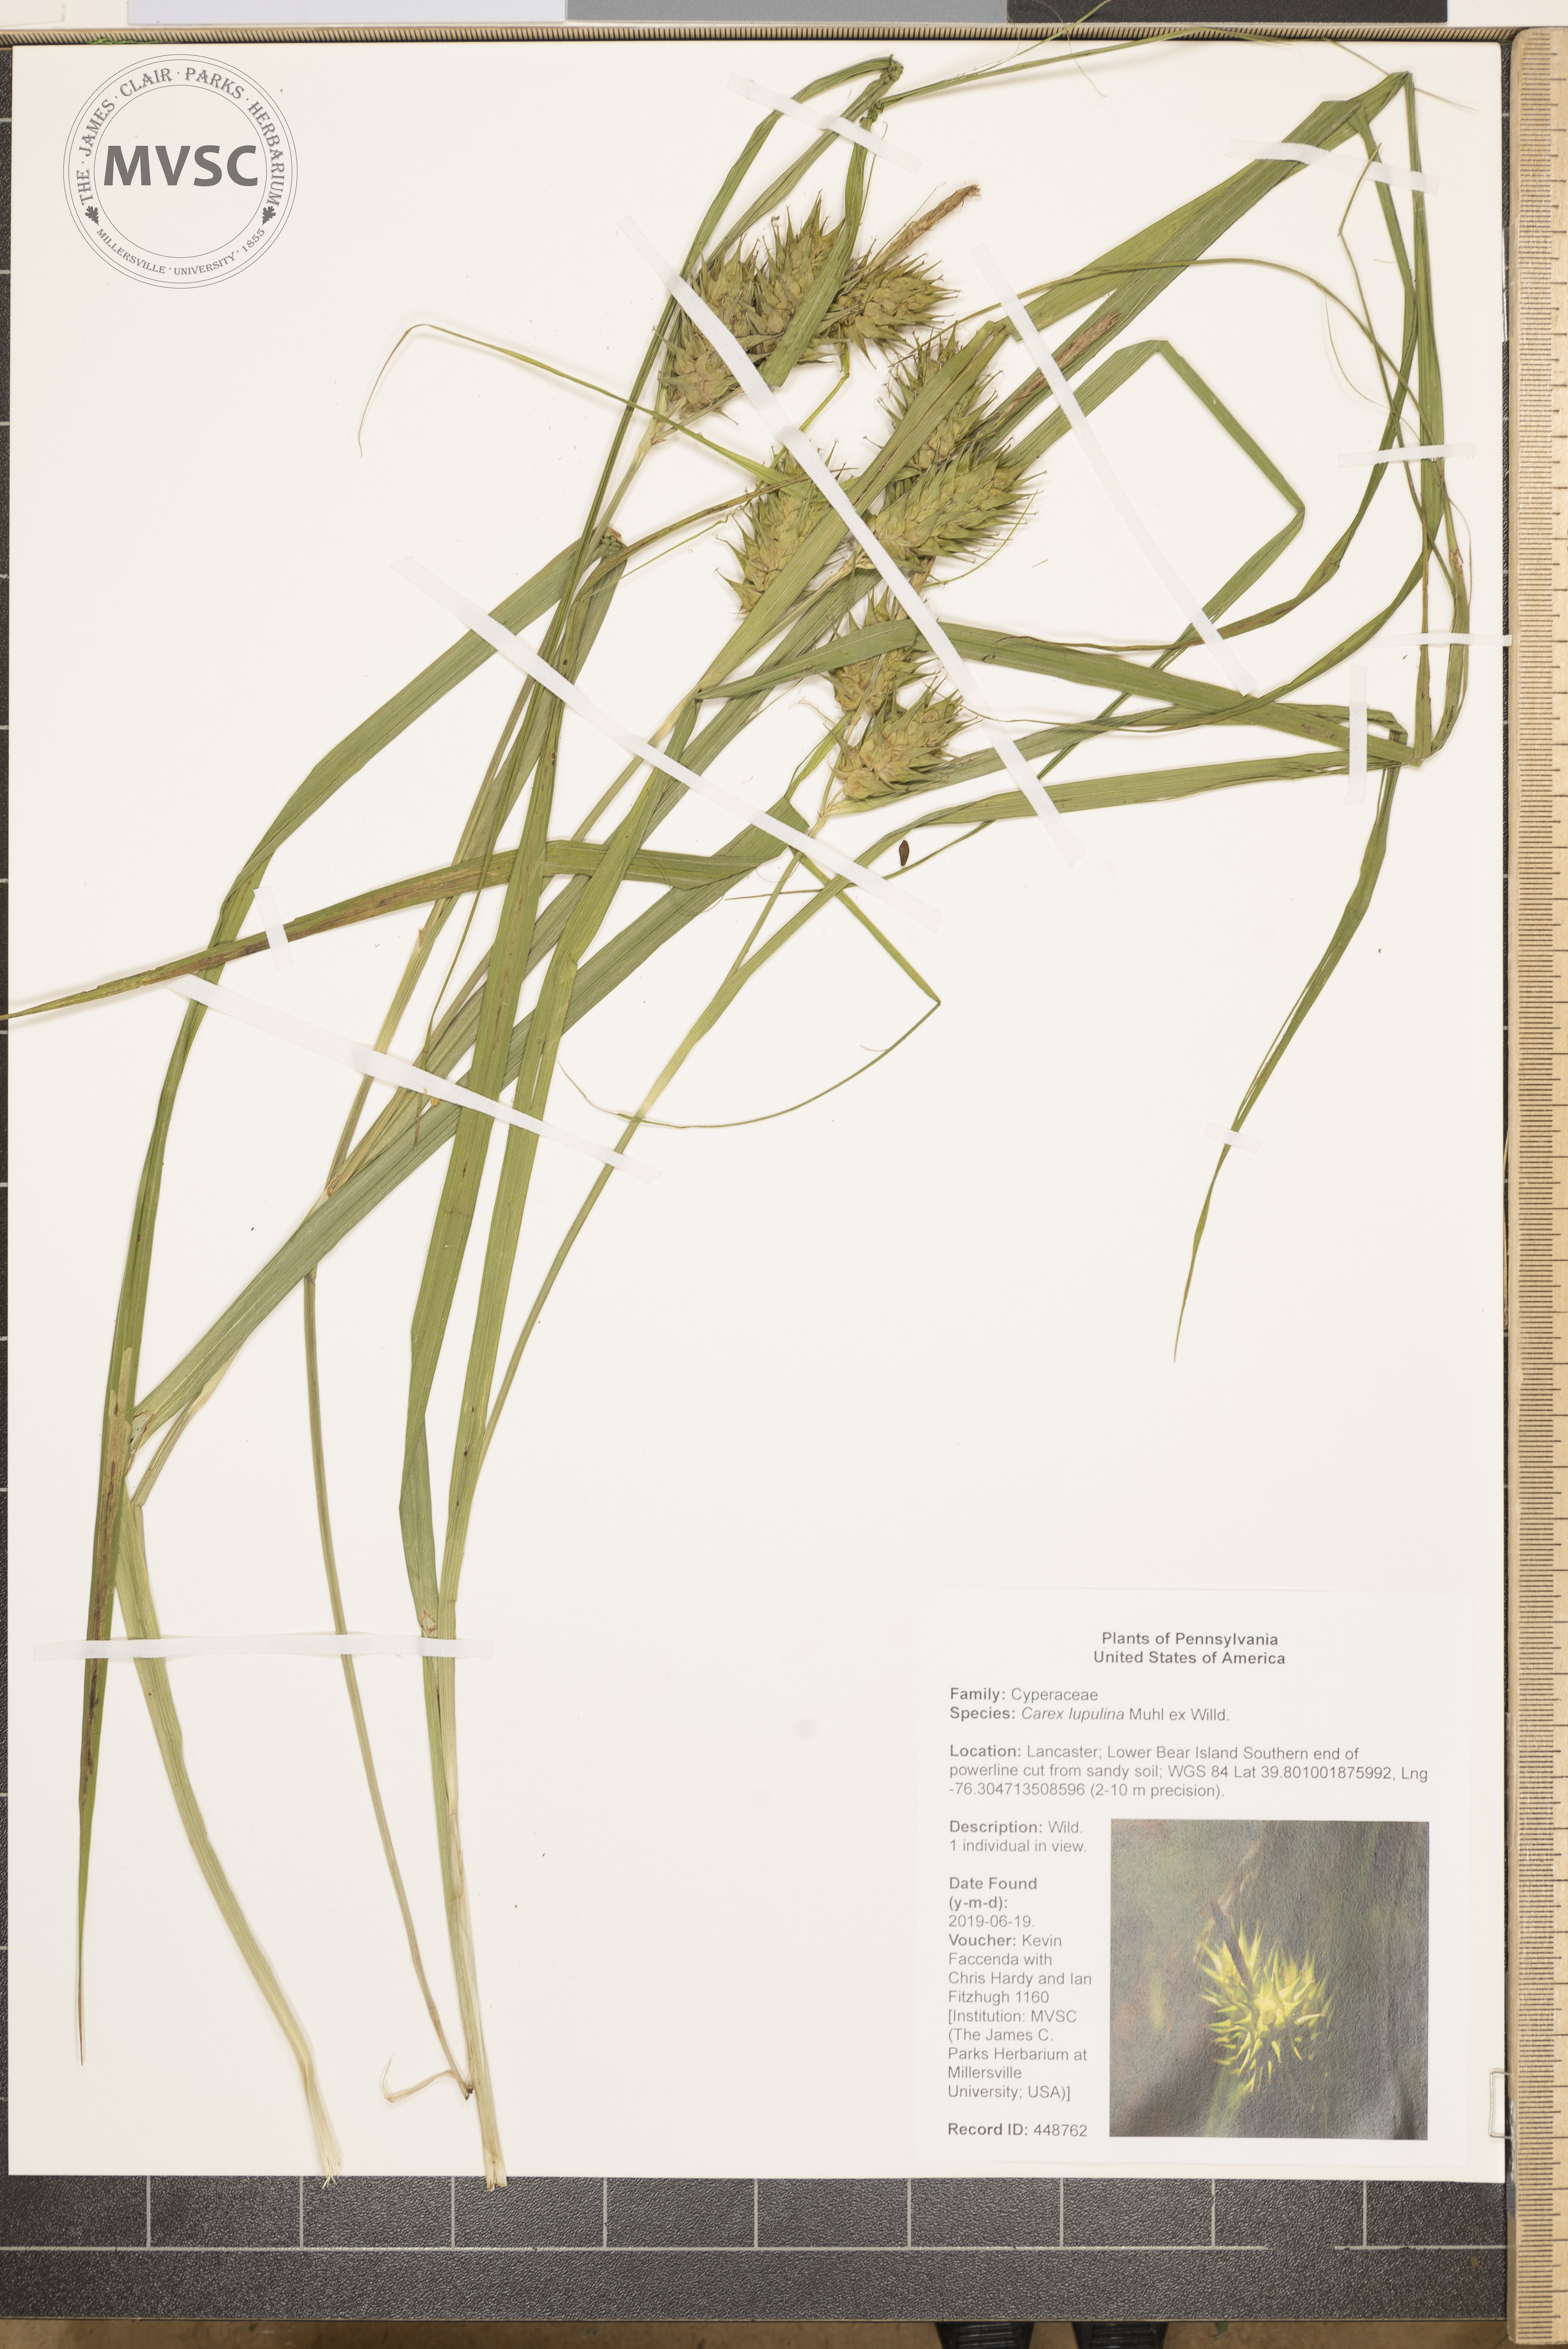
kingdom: Plantae
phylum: Tracheophyta
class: Liliopsida
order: Poales
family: Cyperaceae
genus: Carex
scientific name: Carex lupulina
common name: Hop sedge
